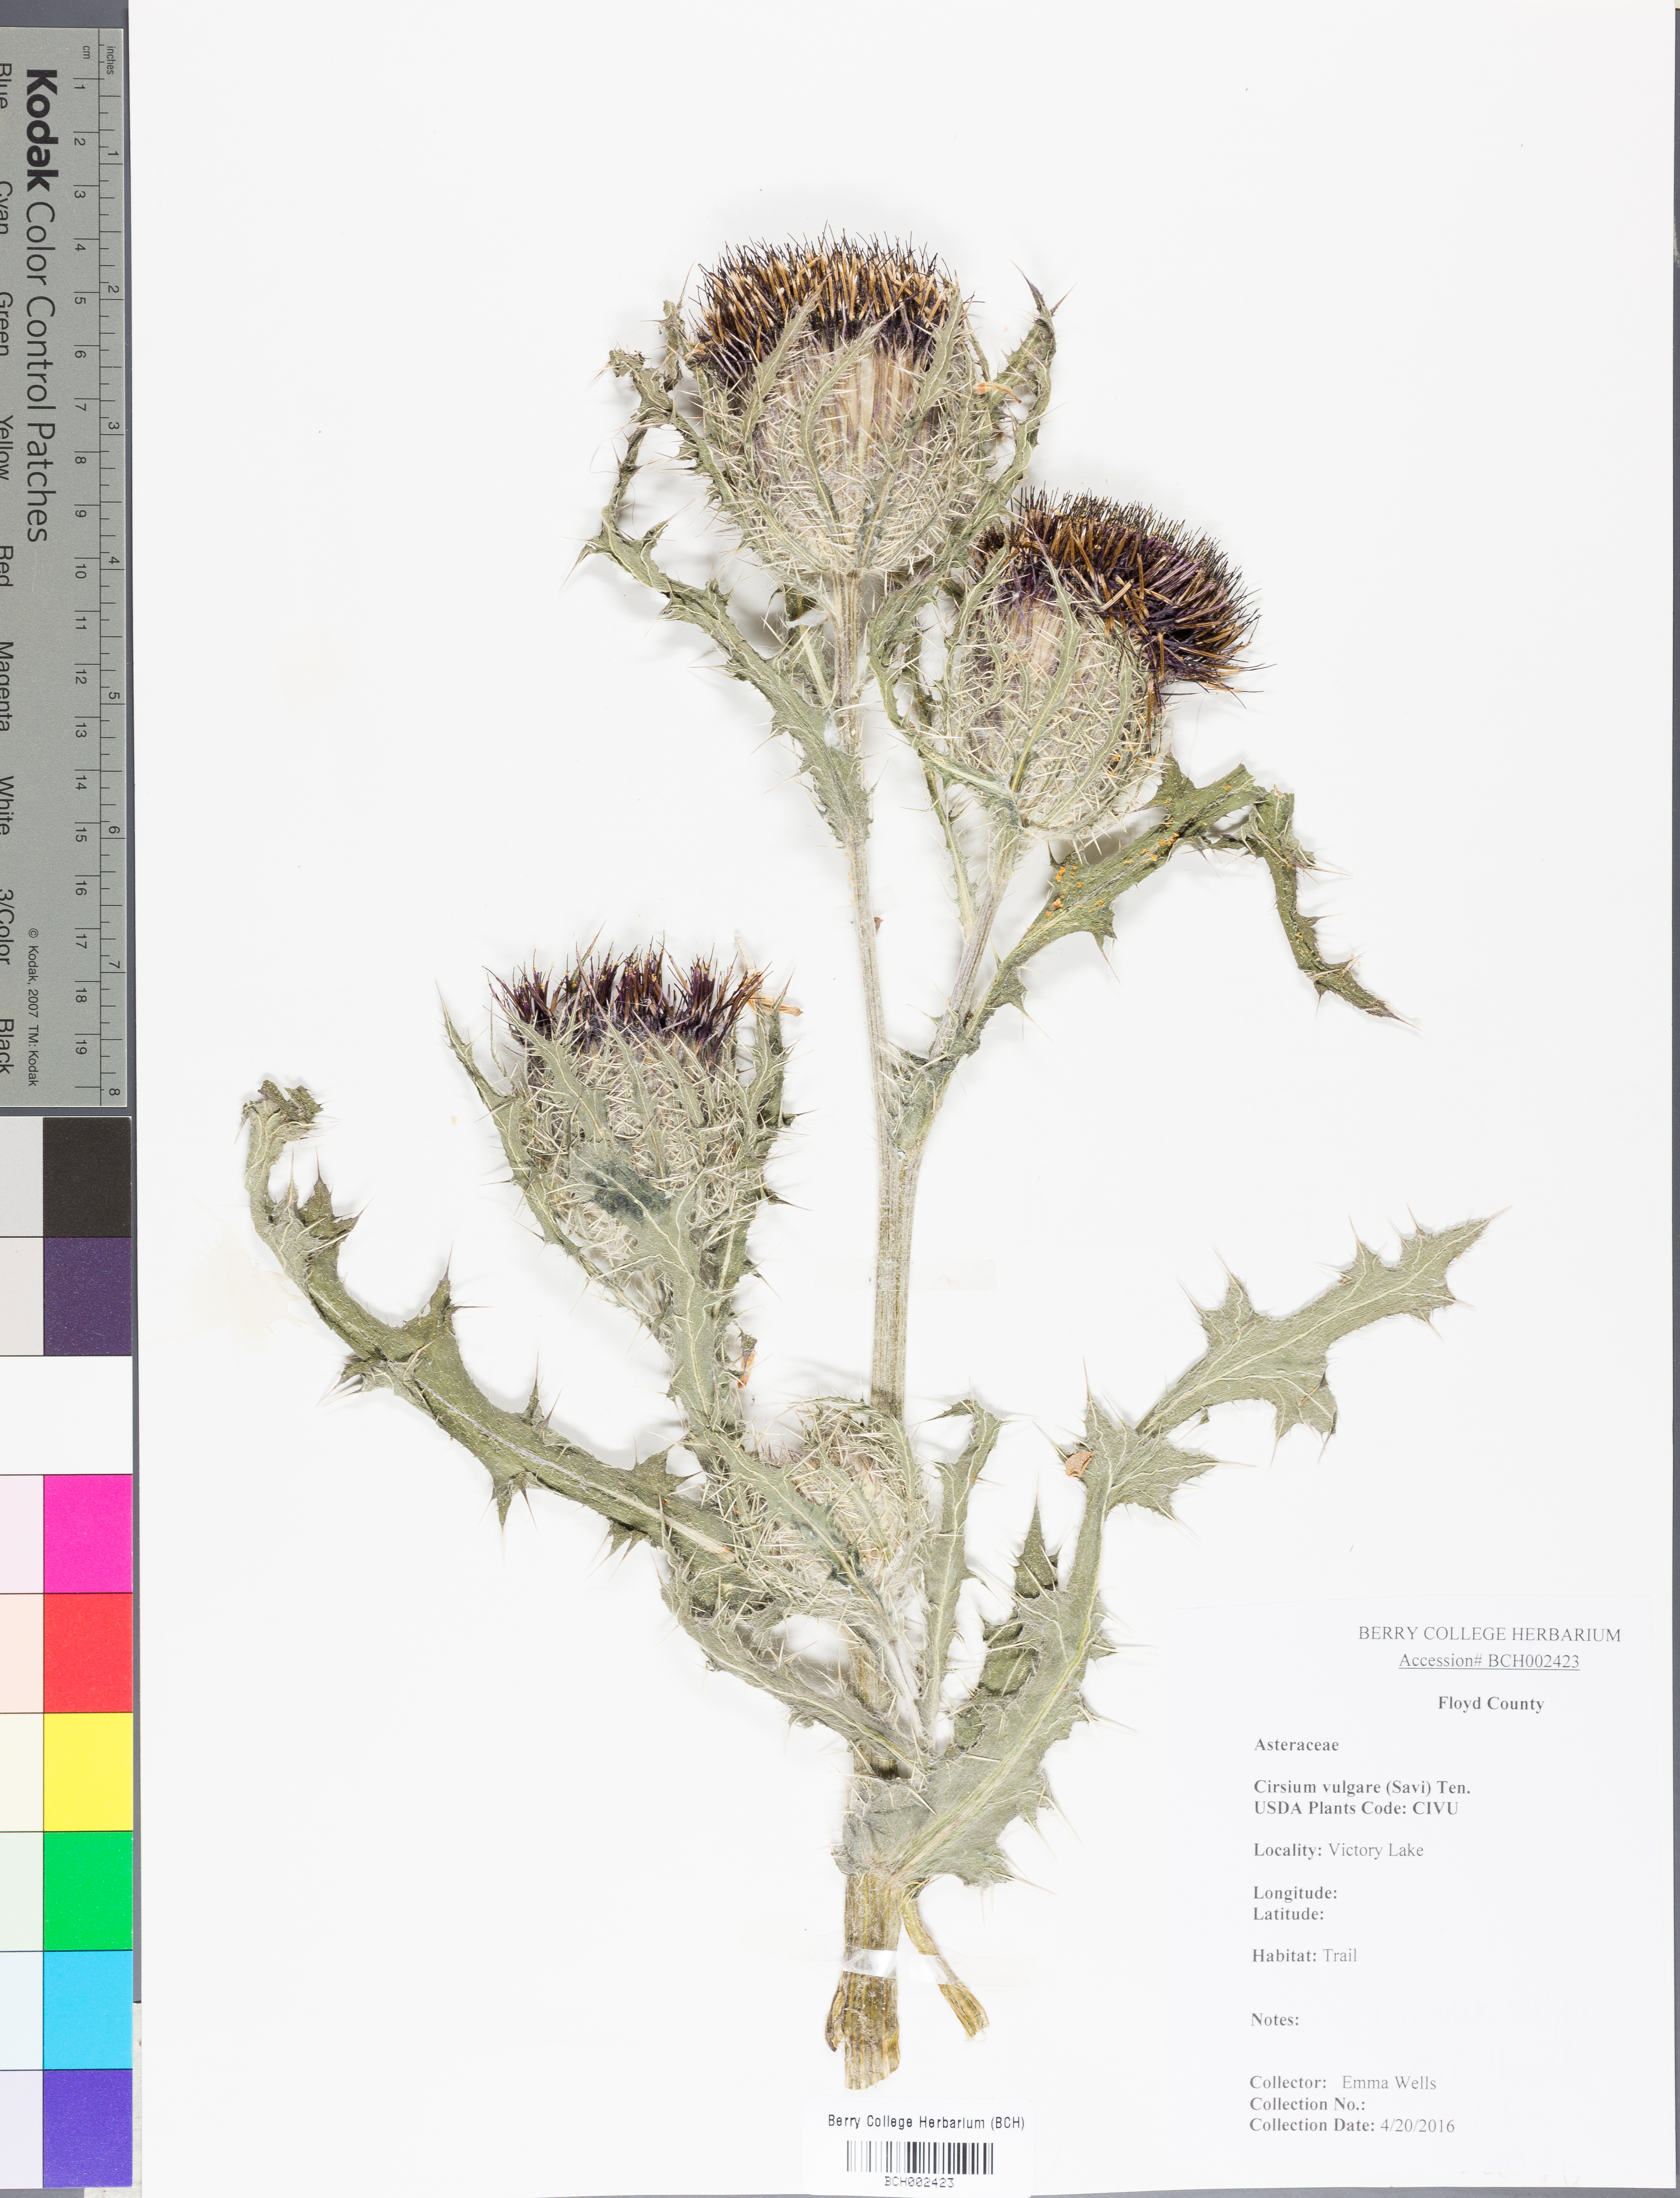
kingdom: Plantae
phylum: Tracheophyta
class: Magnoliopsida
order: Asterales
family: Asteraceae
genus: Cirsium
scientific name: Cirsium vulgare
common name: Bull thistle
